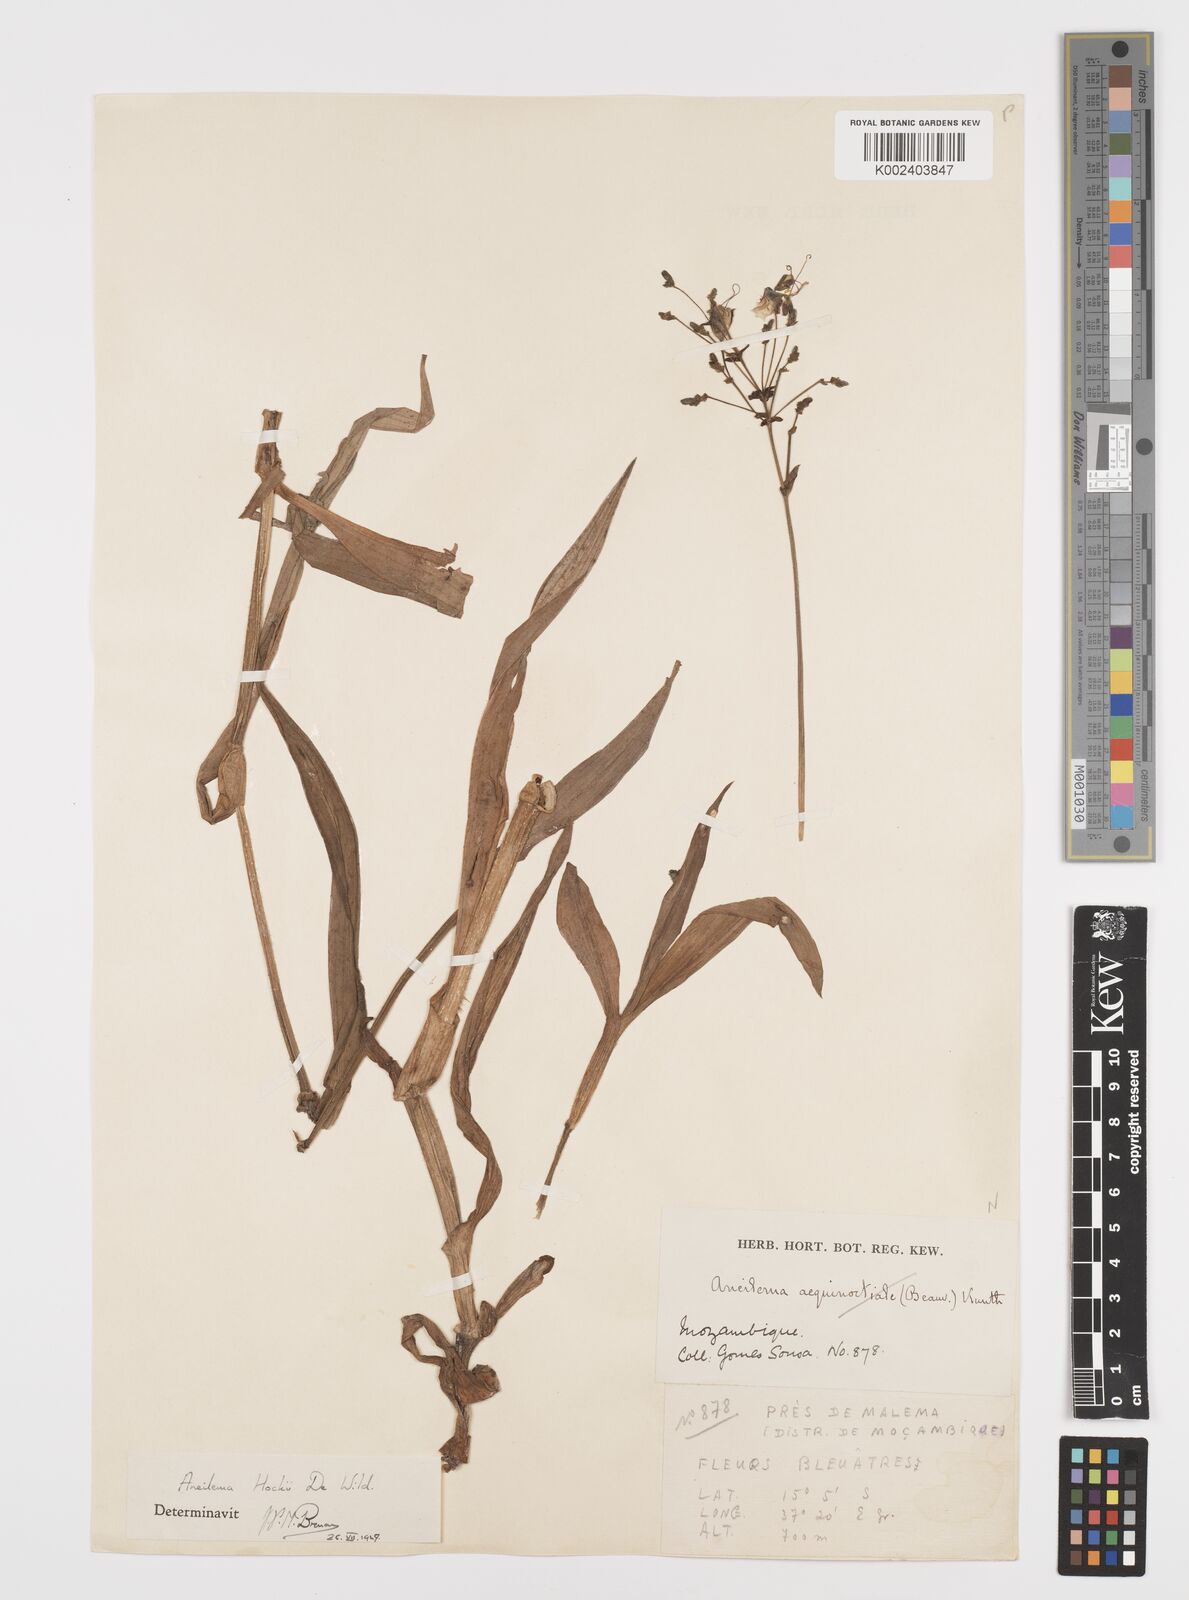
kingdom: Plantae
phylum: Tracheophyta
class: Liliopsida
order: Commelinales
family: Commelinaceae
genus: Aneilema
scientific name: Aneilema hockii
